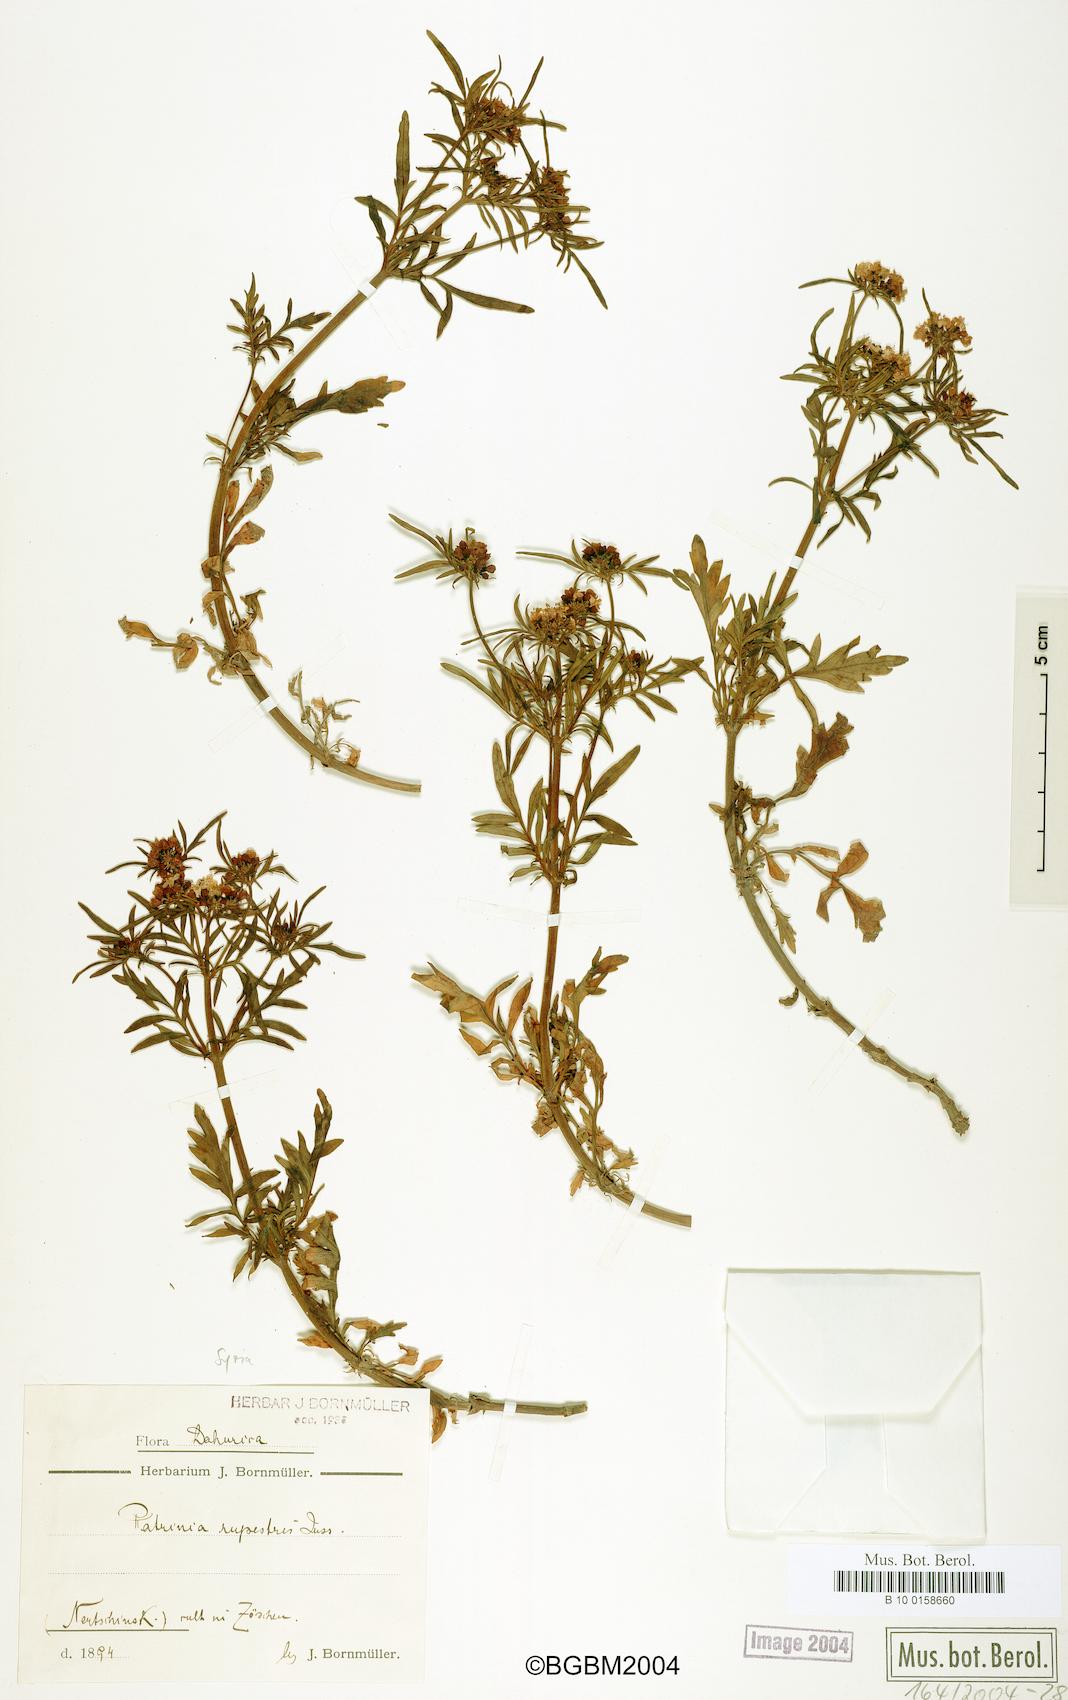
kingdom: Plantae
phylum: Tracheophyta
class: Magnoliopsida
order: Dipsacales
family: Caprifoliaceae
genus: Patrinia
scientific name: Patrinia rupestris
